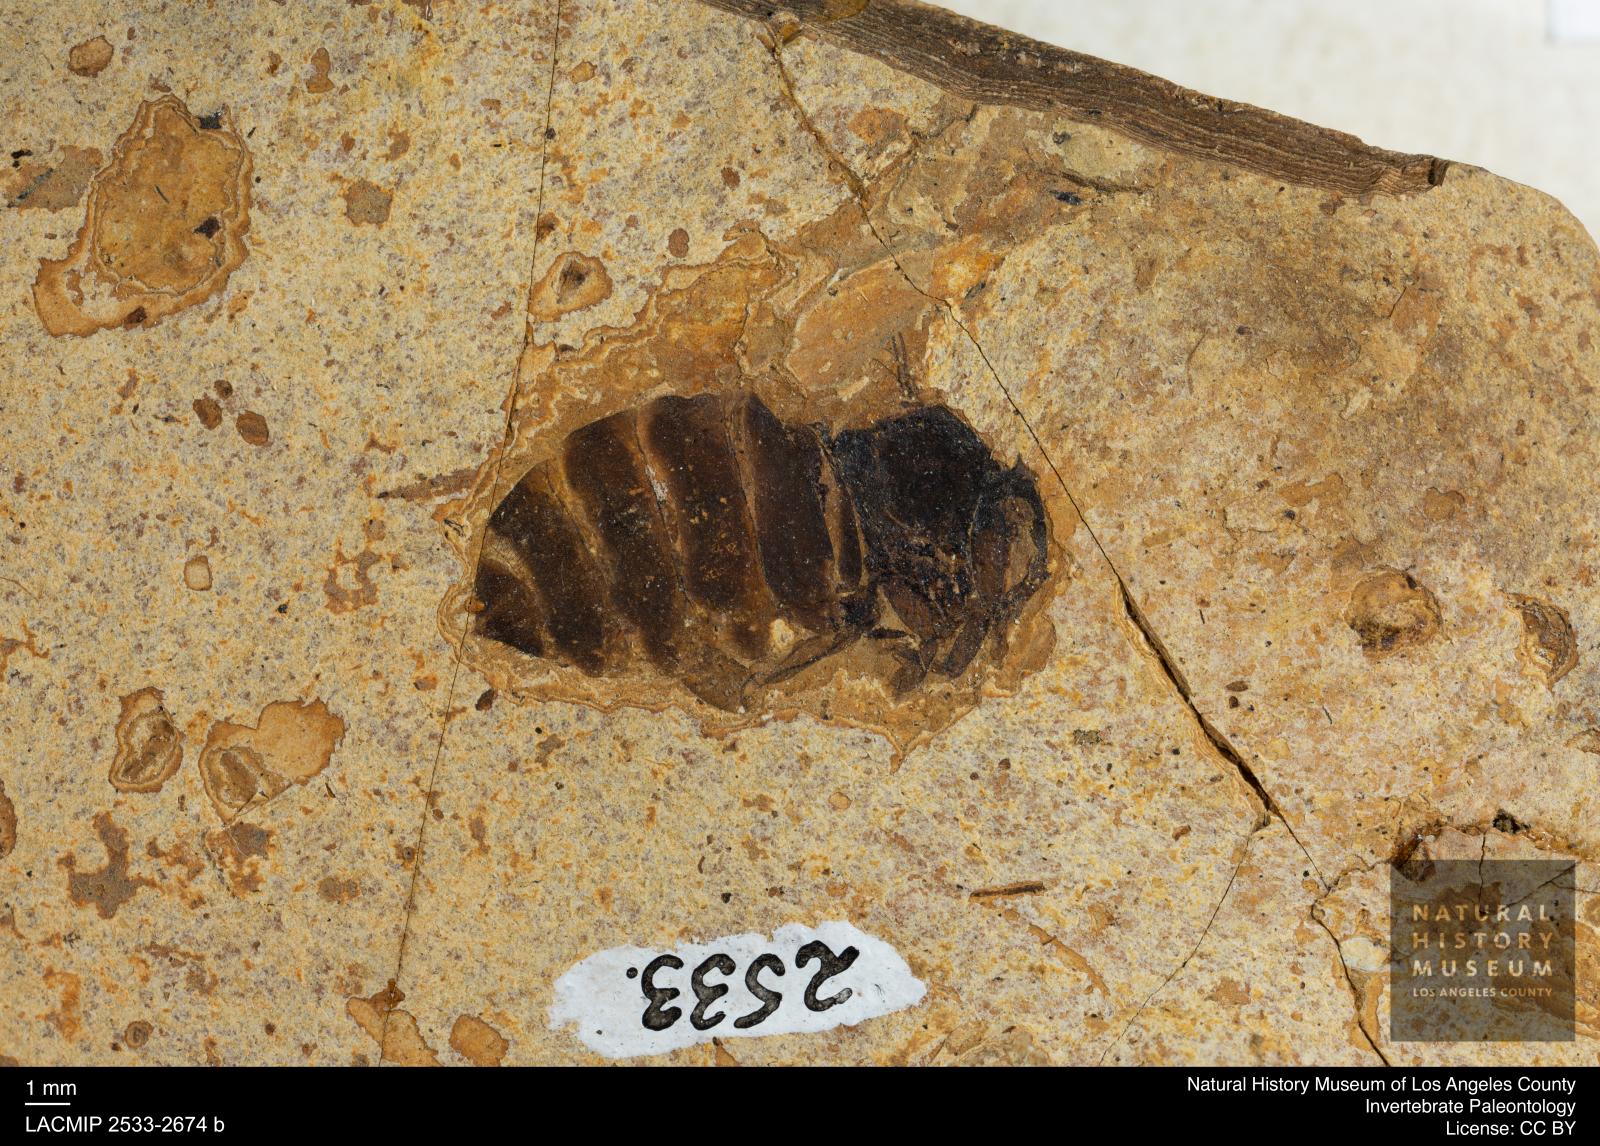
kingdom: Animalia
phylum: Arthropoda
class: Insecta
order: Hymenoptera
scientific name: Hymenoptera
